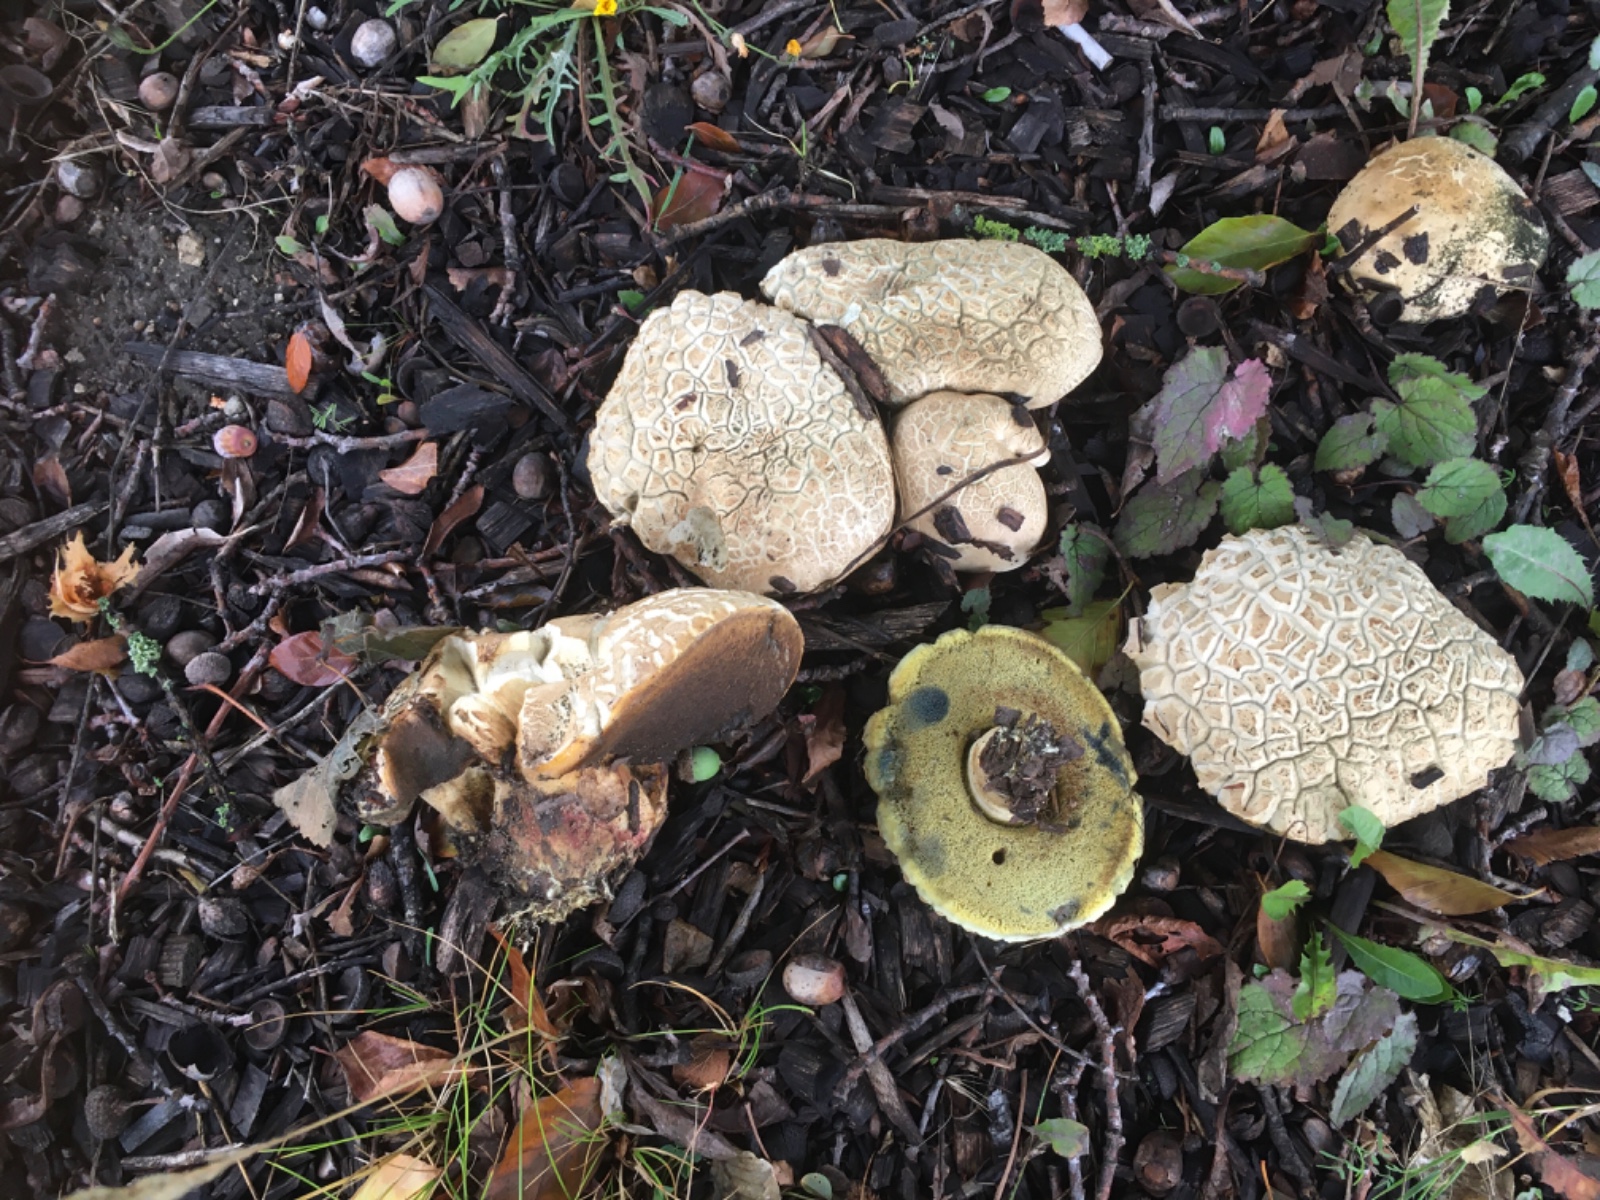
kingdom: Fungi
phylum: Basidiomycota
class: Agaricomycetes
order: Boletales
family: Boletaceae
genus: Caloboletus
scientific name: Caloboletus radicans
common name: rod-rørhat
